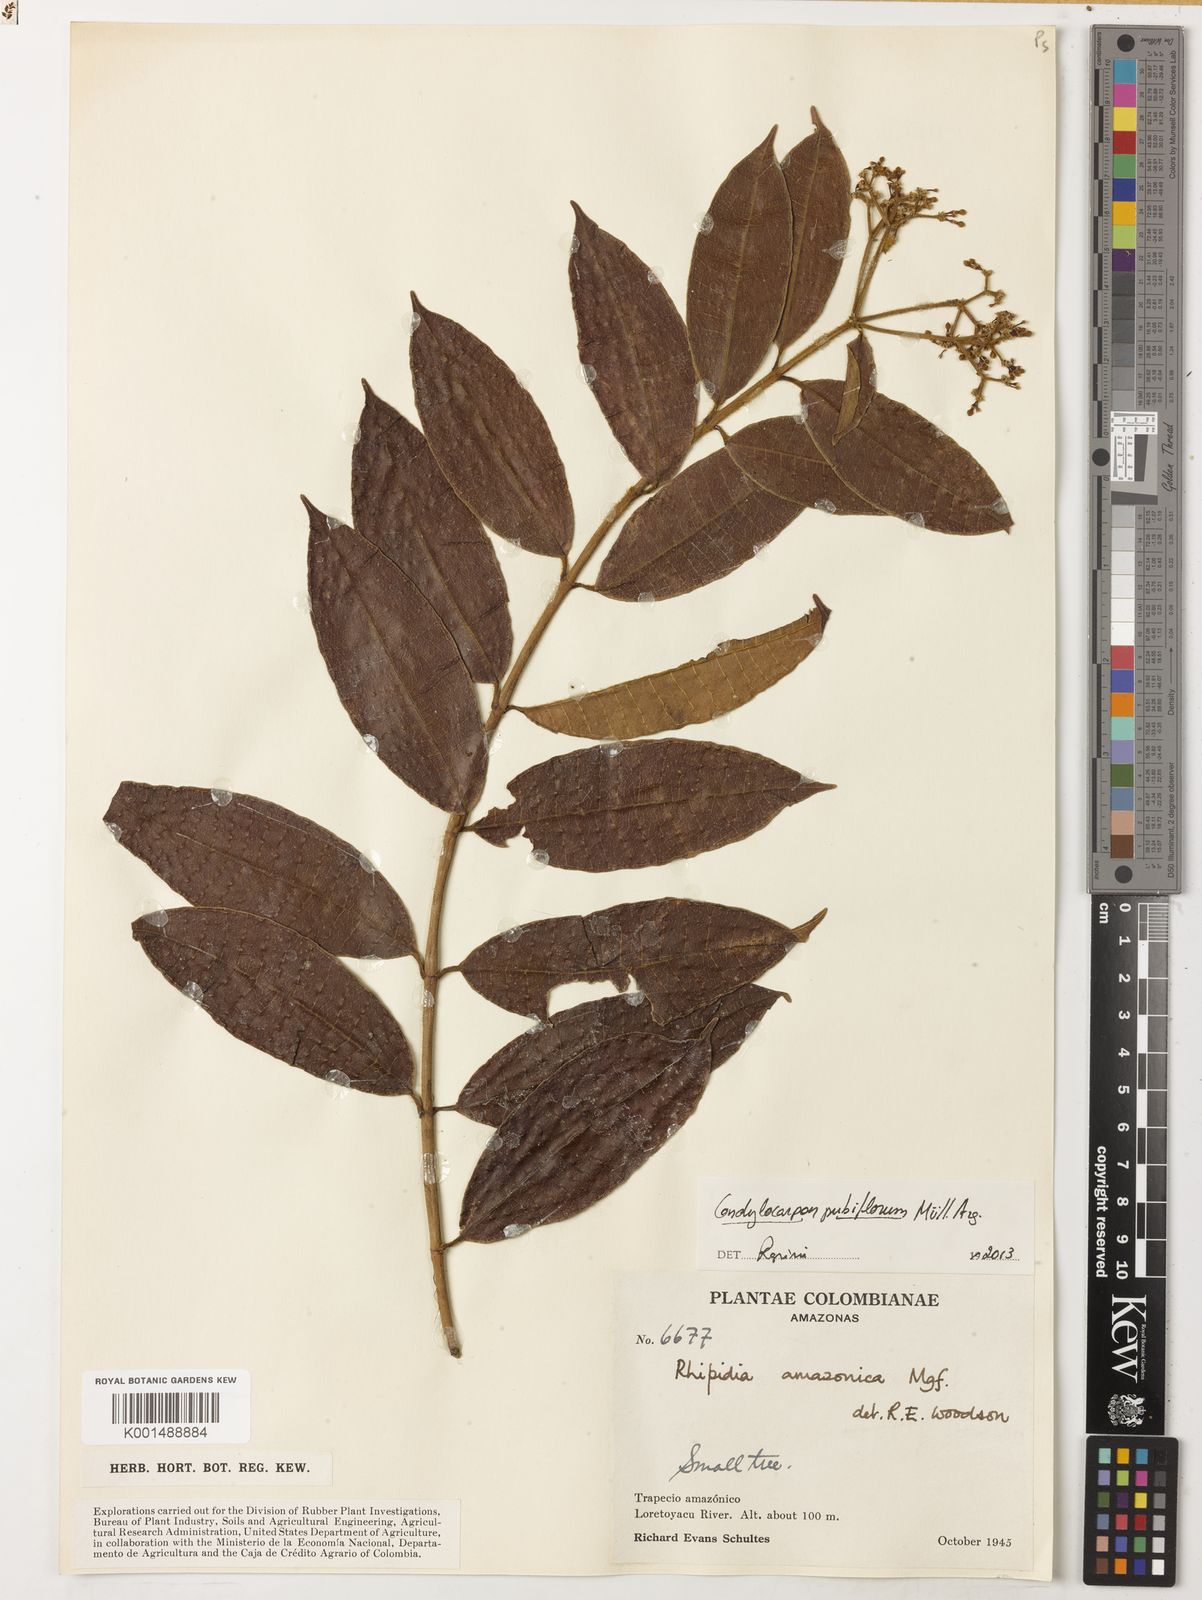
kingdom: Plantae
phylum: Tracheophyta
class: Magnoliopsida
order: Gentianales
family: Apocynaceae
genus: Condylocarpon
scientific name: Condylocarpon pubiflorum
